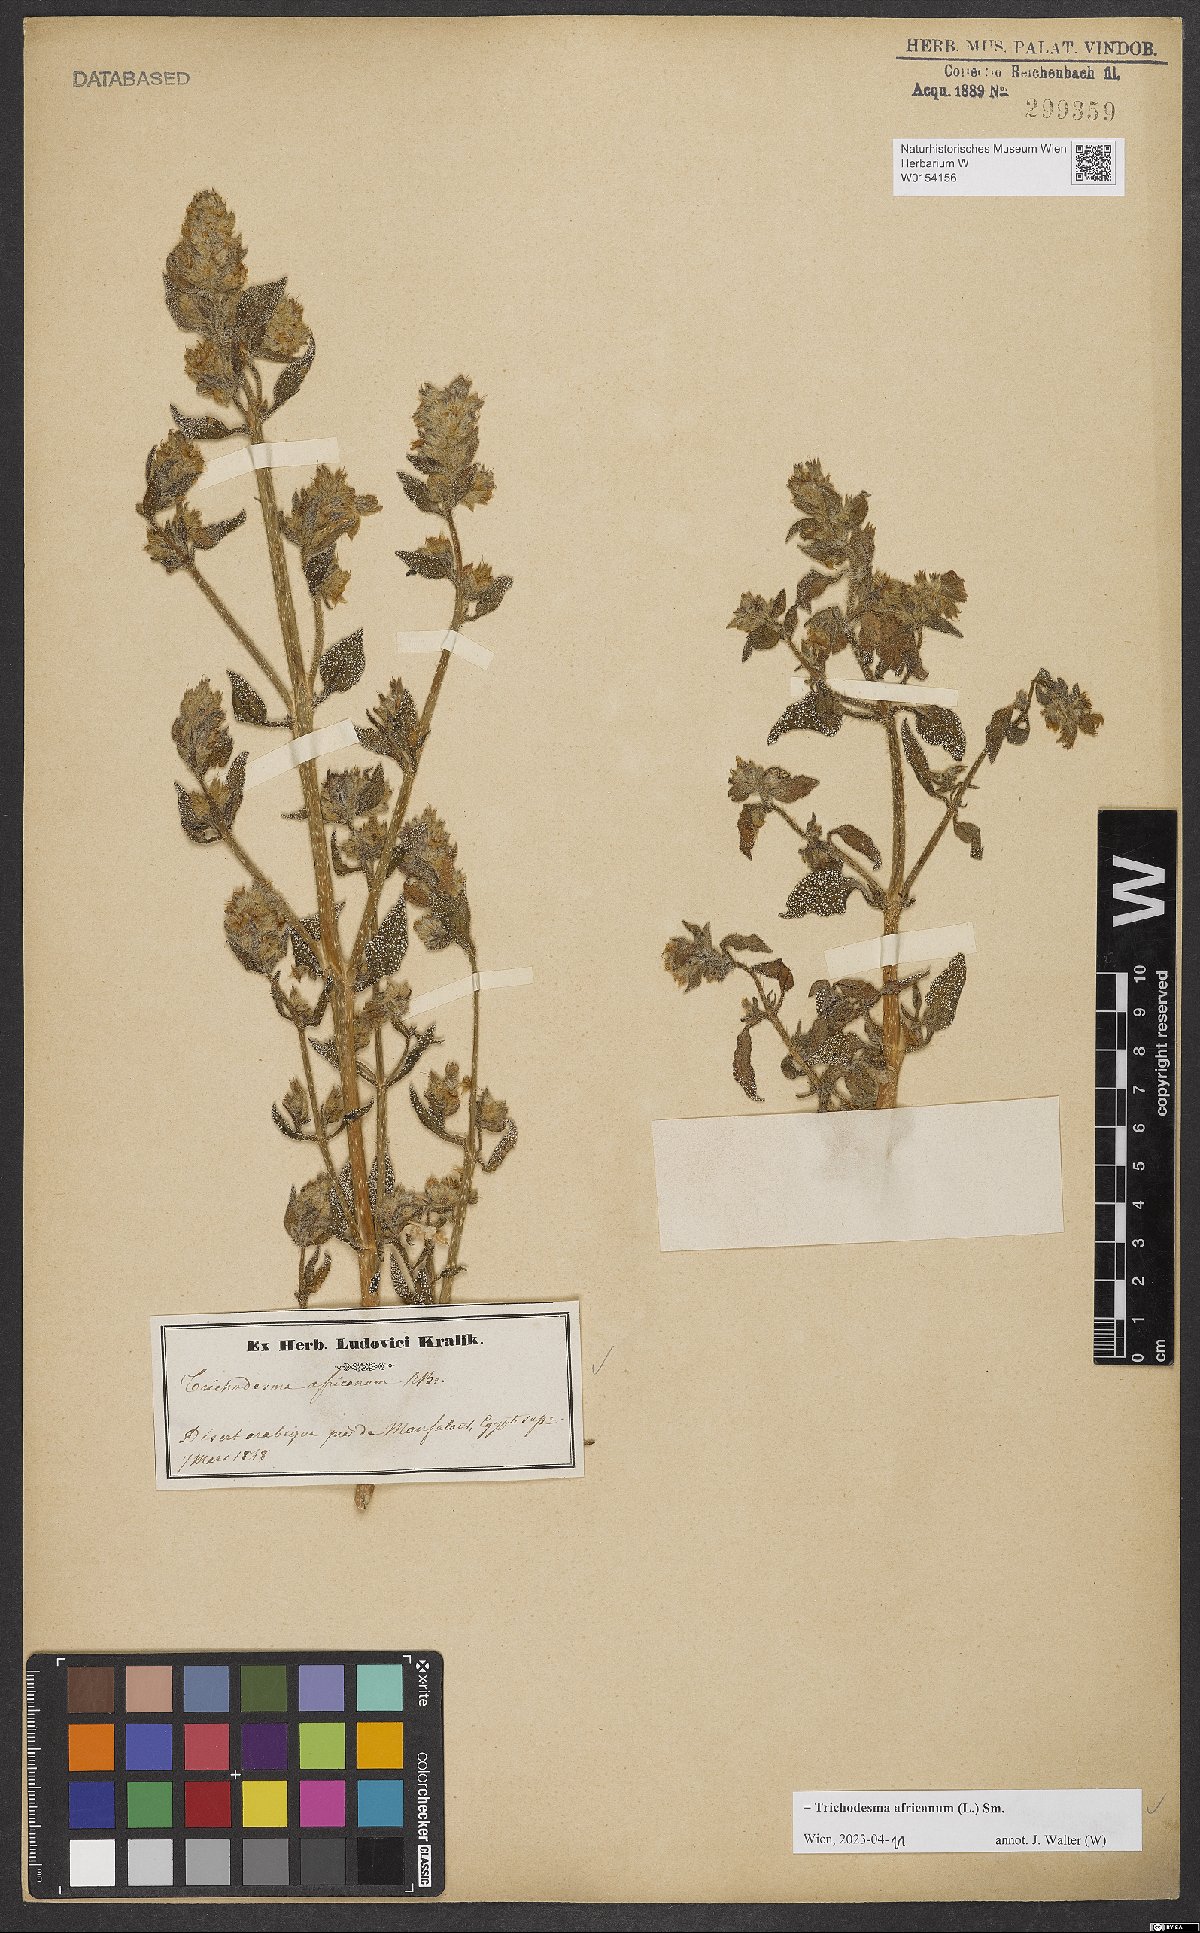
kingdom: Plantae
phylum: Tracheophyta
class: Magnoliopsida
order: Boraginales
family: Boraginaceae
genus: Trichodesma
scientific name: Trichodesma africanum
